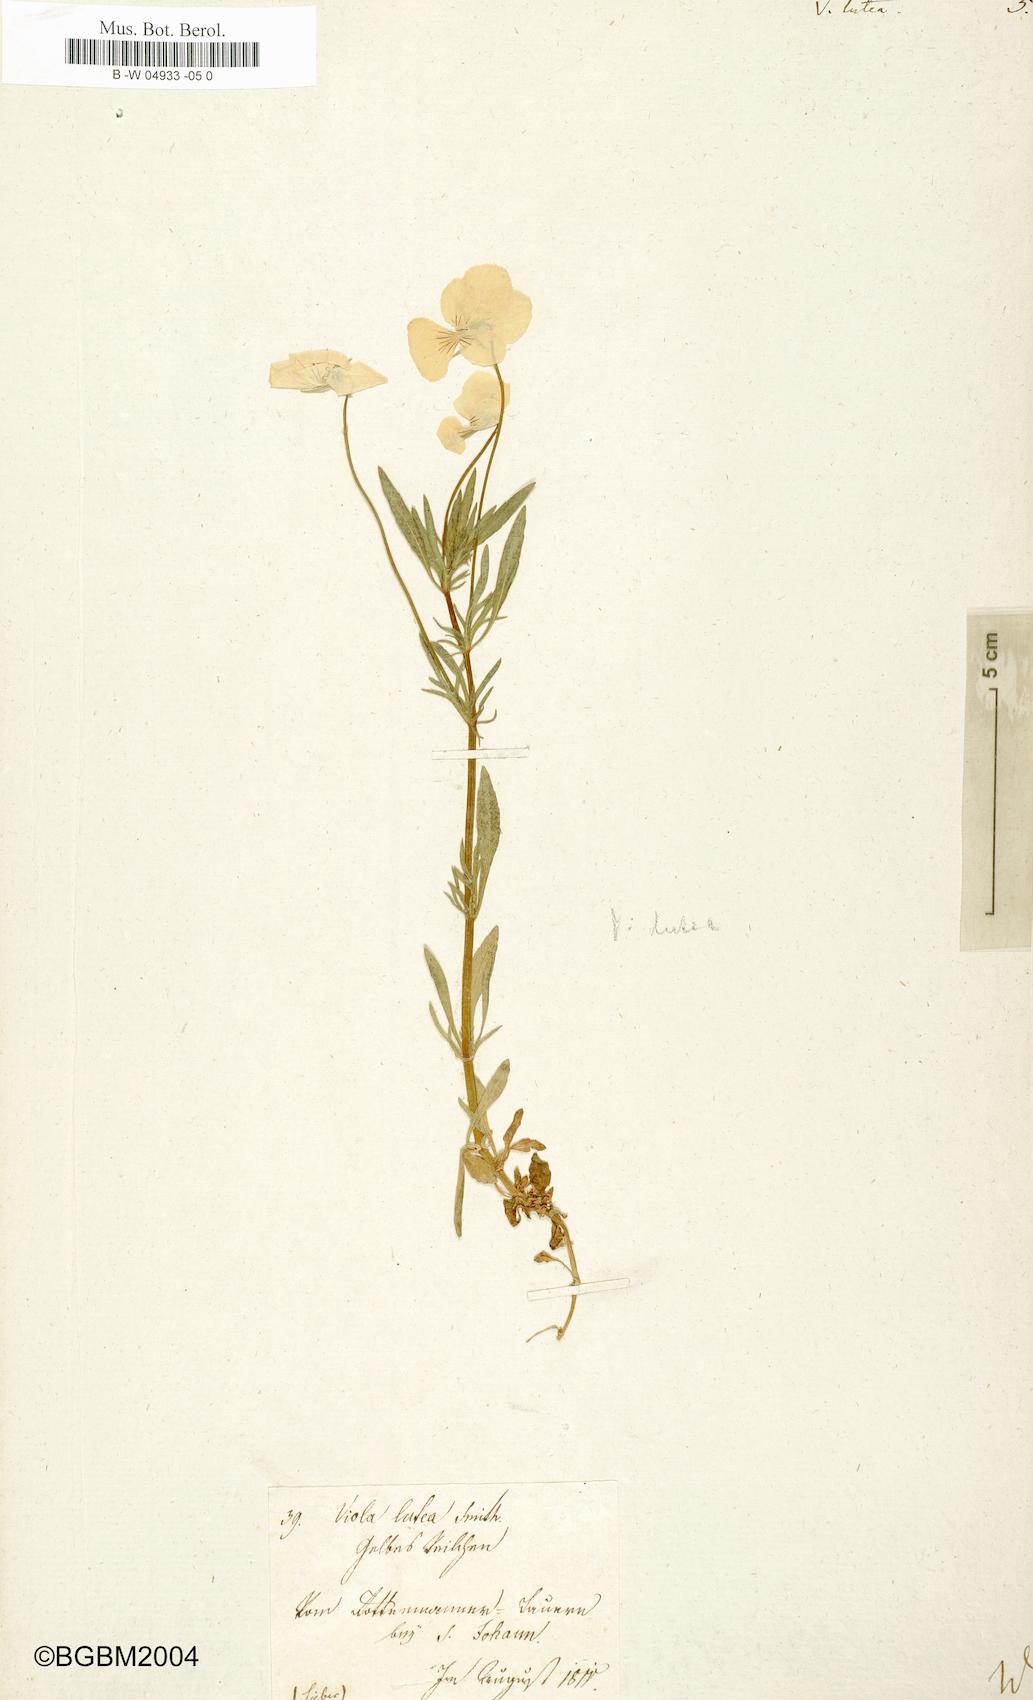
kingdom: Plantae
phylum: Tracheophyta
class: Magnoliopsida
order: Malpighiales
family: Violaceae
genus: Viola
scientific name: Viola lutea
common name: Mountain pansy
